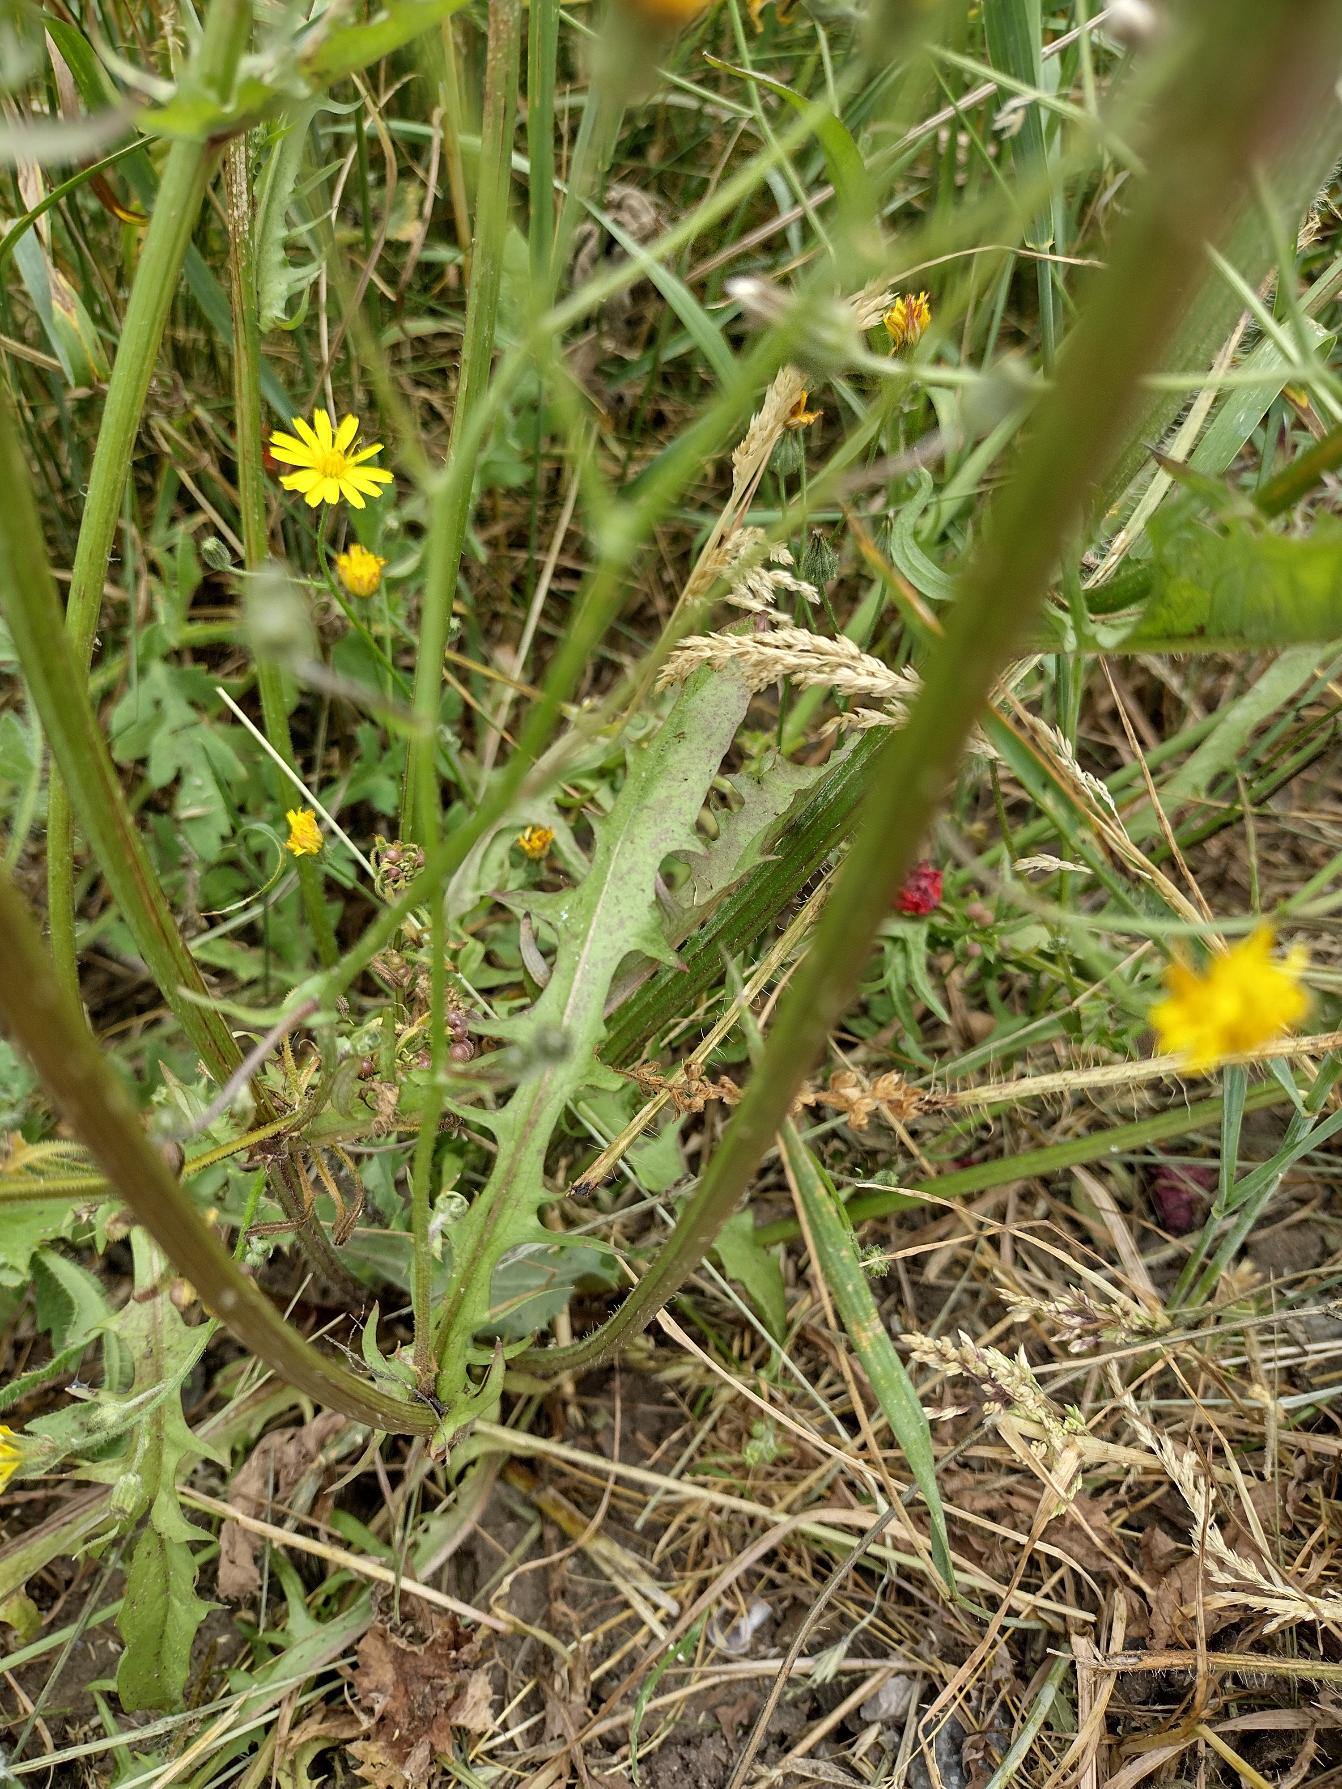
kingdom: Plantae
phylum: Tracheophyta
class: Magnoliopsida
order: Asterales
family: Asteraceae
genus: Crepis
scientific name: Crepis capillaris
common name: Grøn høgeskæg
